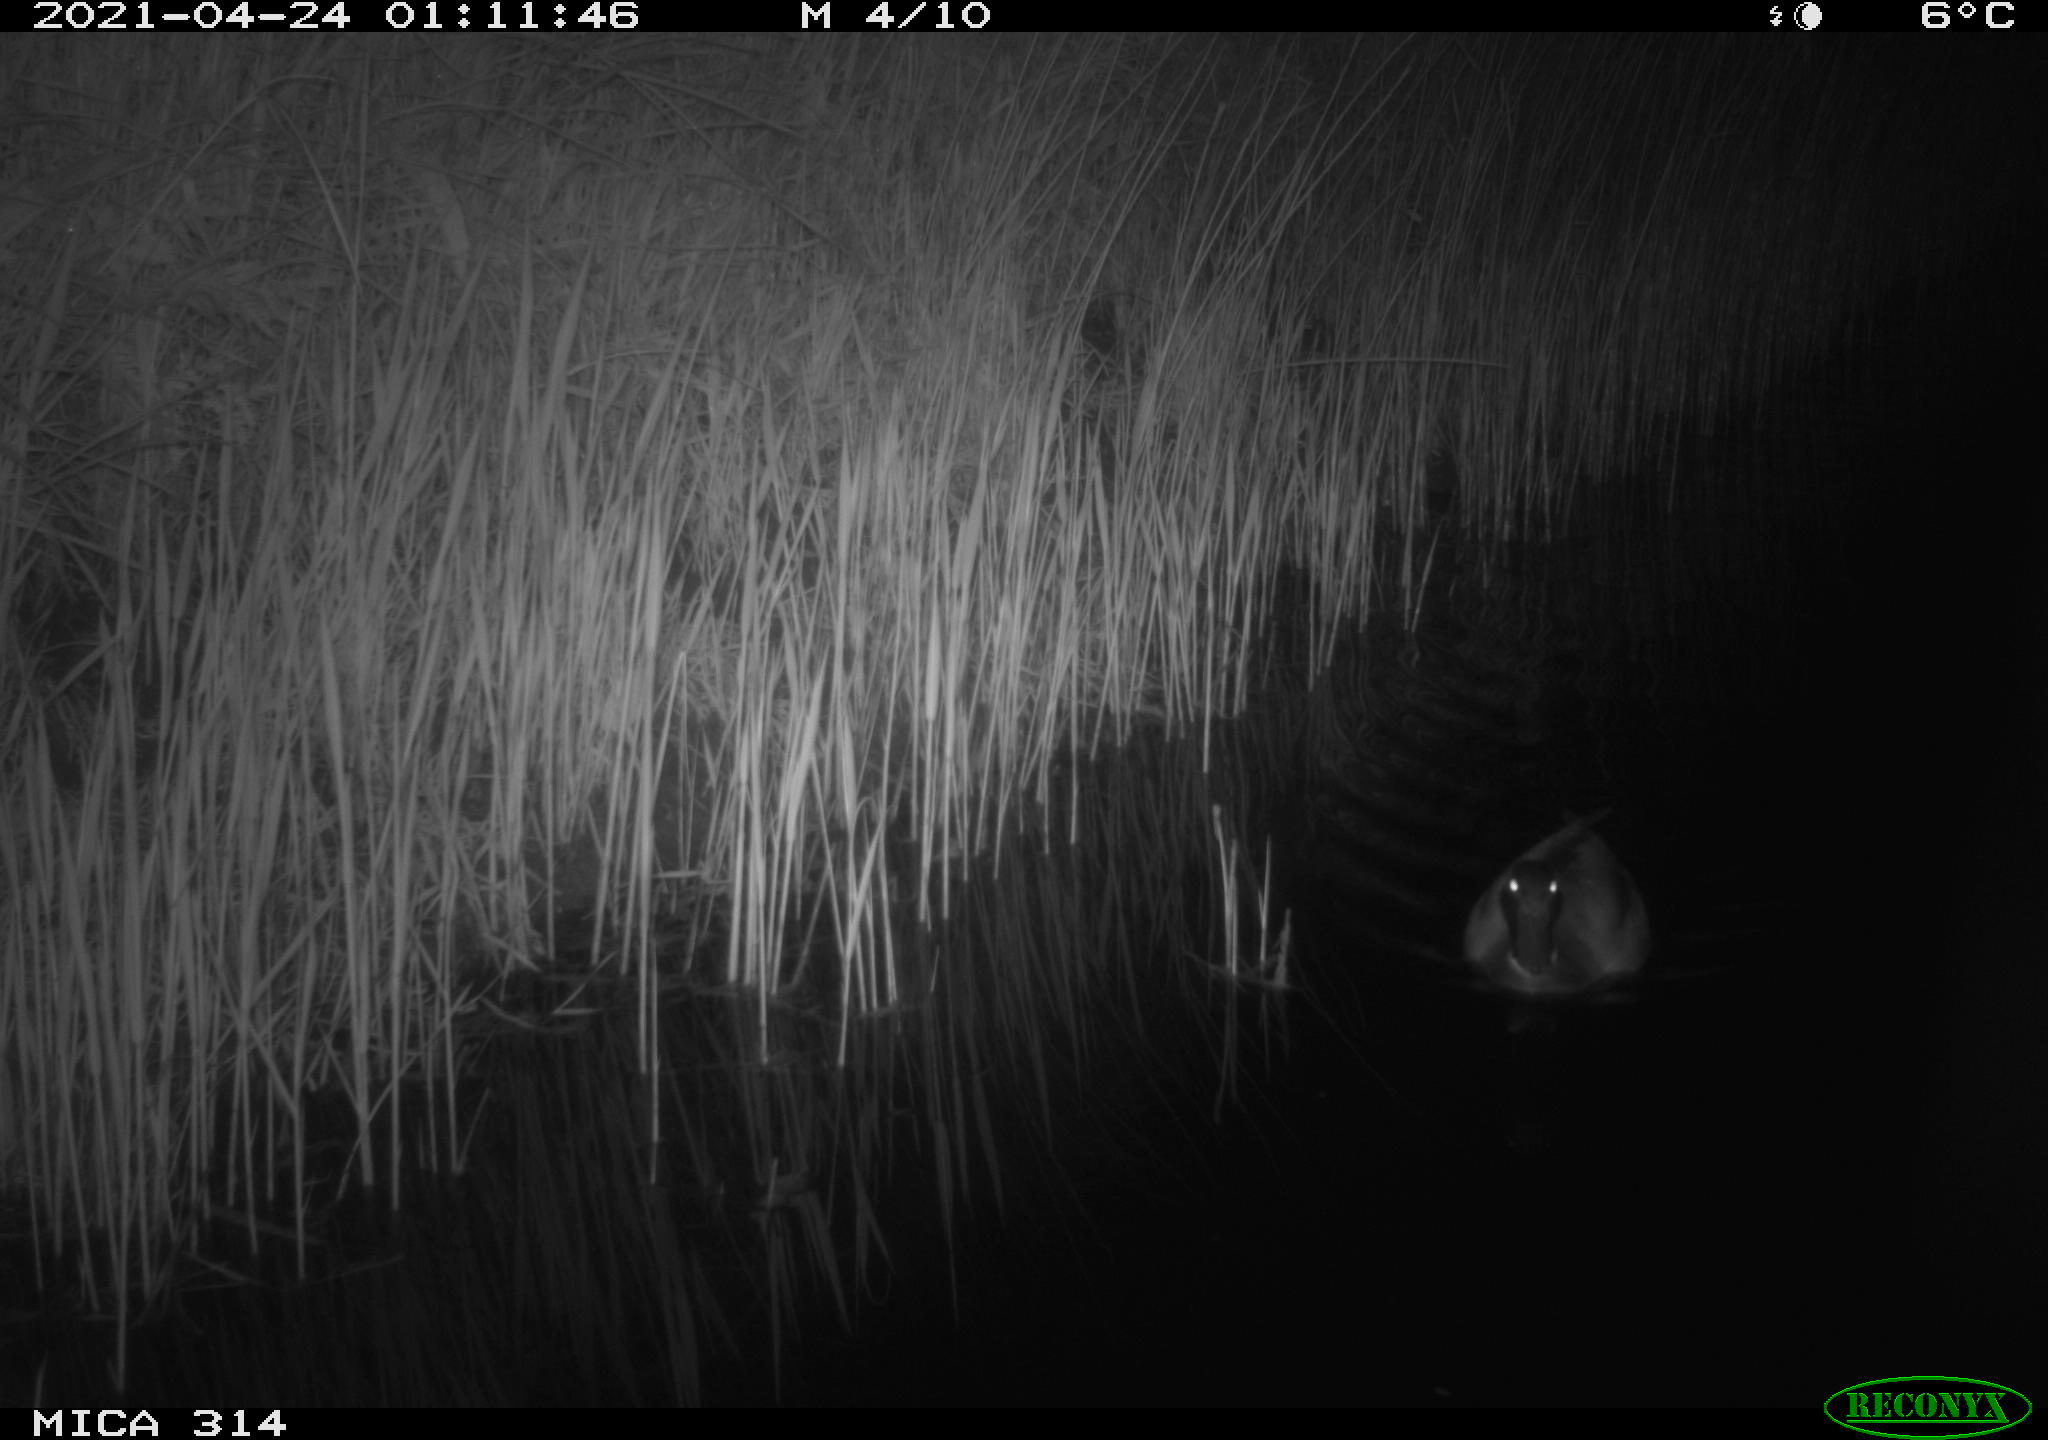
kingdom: Animalia
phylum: Chordata
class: Aves
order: Anseriformes
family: Anatidae
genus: Anas
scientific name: Anas platyrhynchos
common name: Mallard
